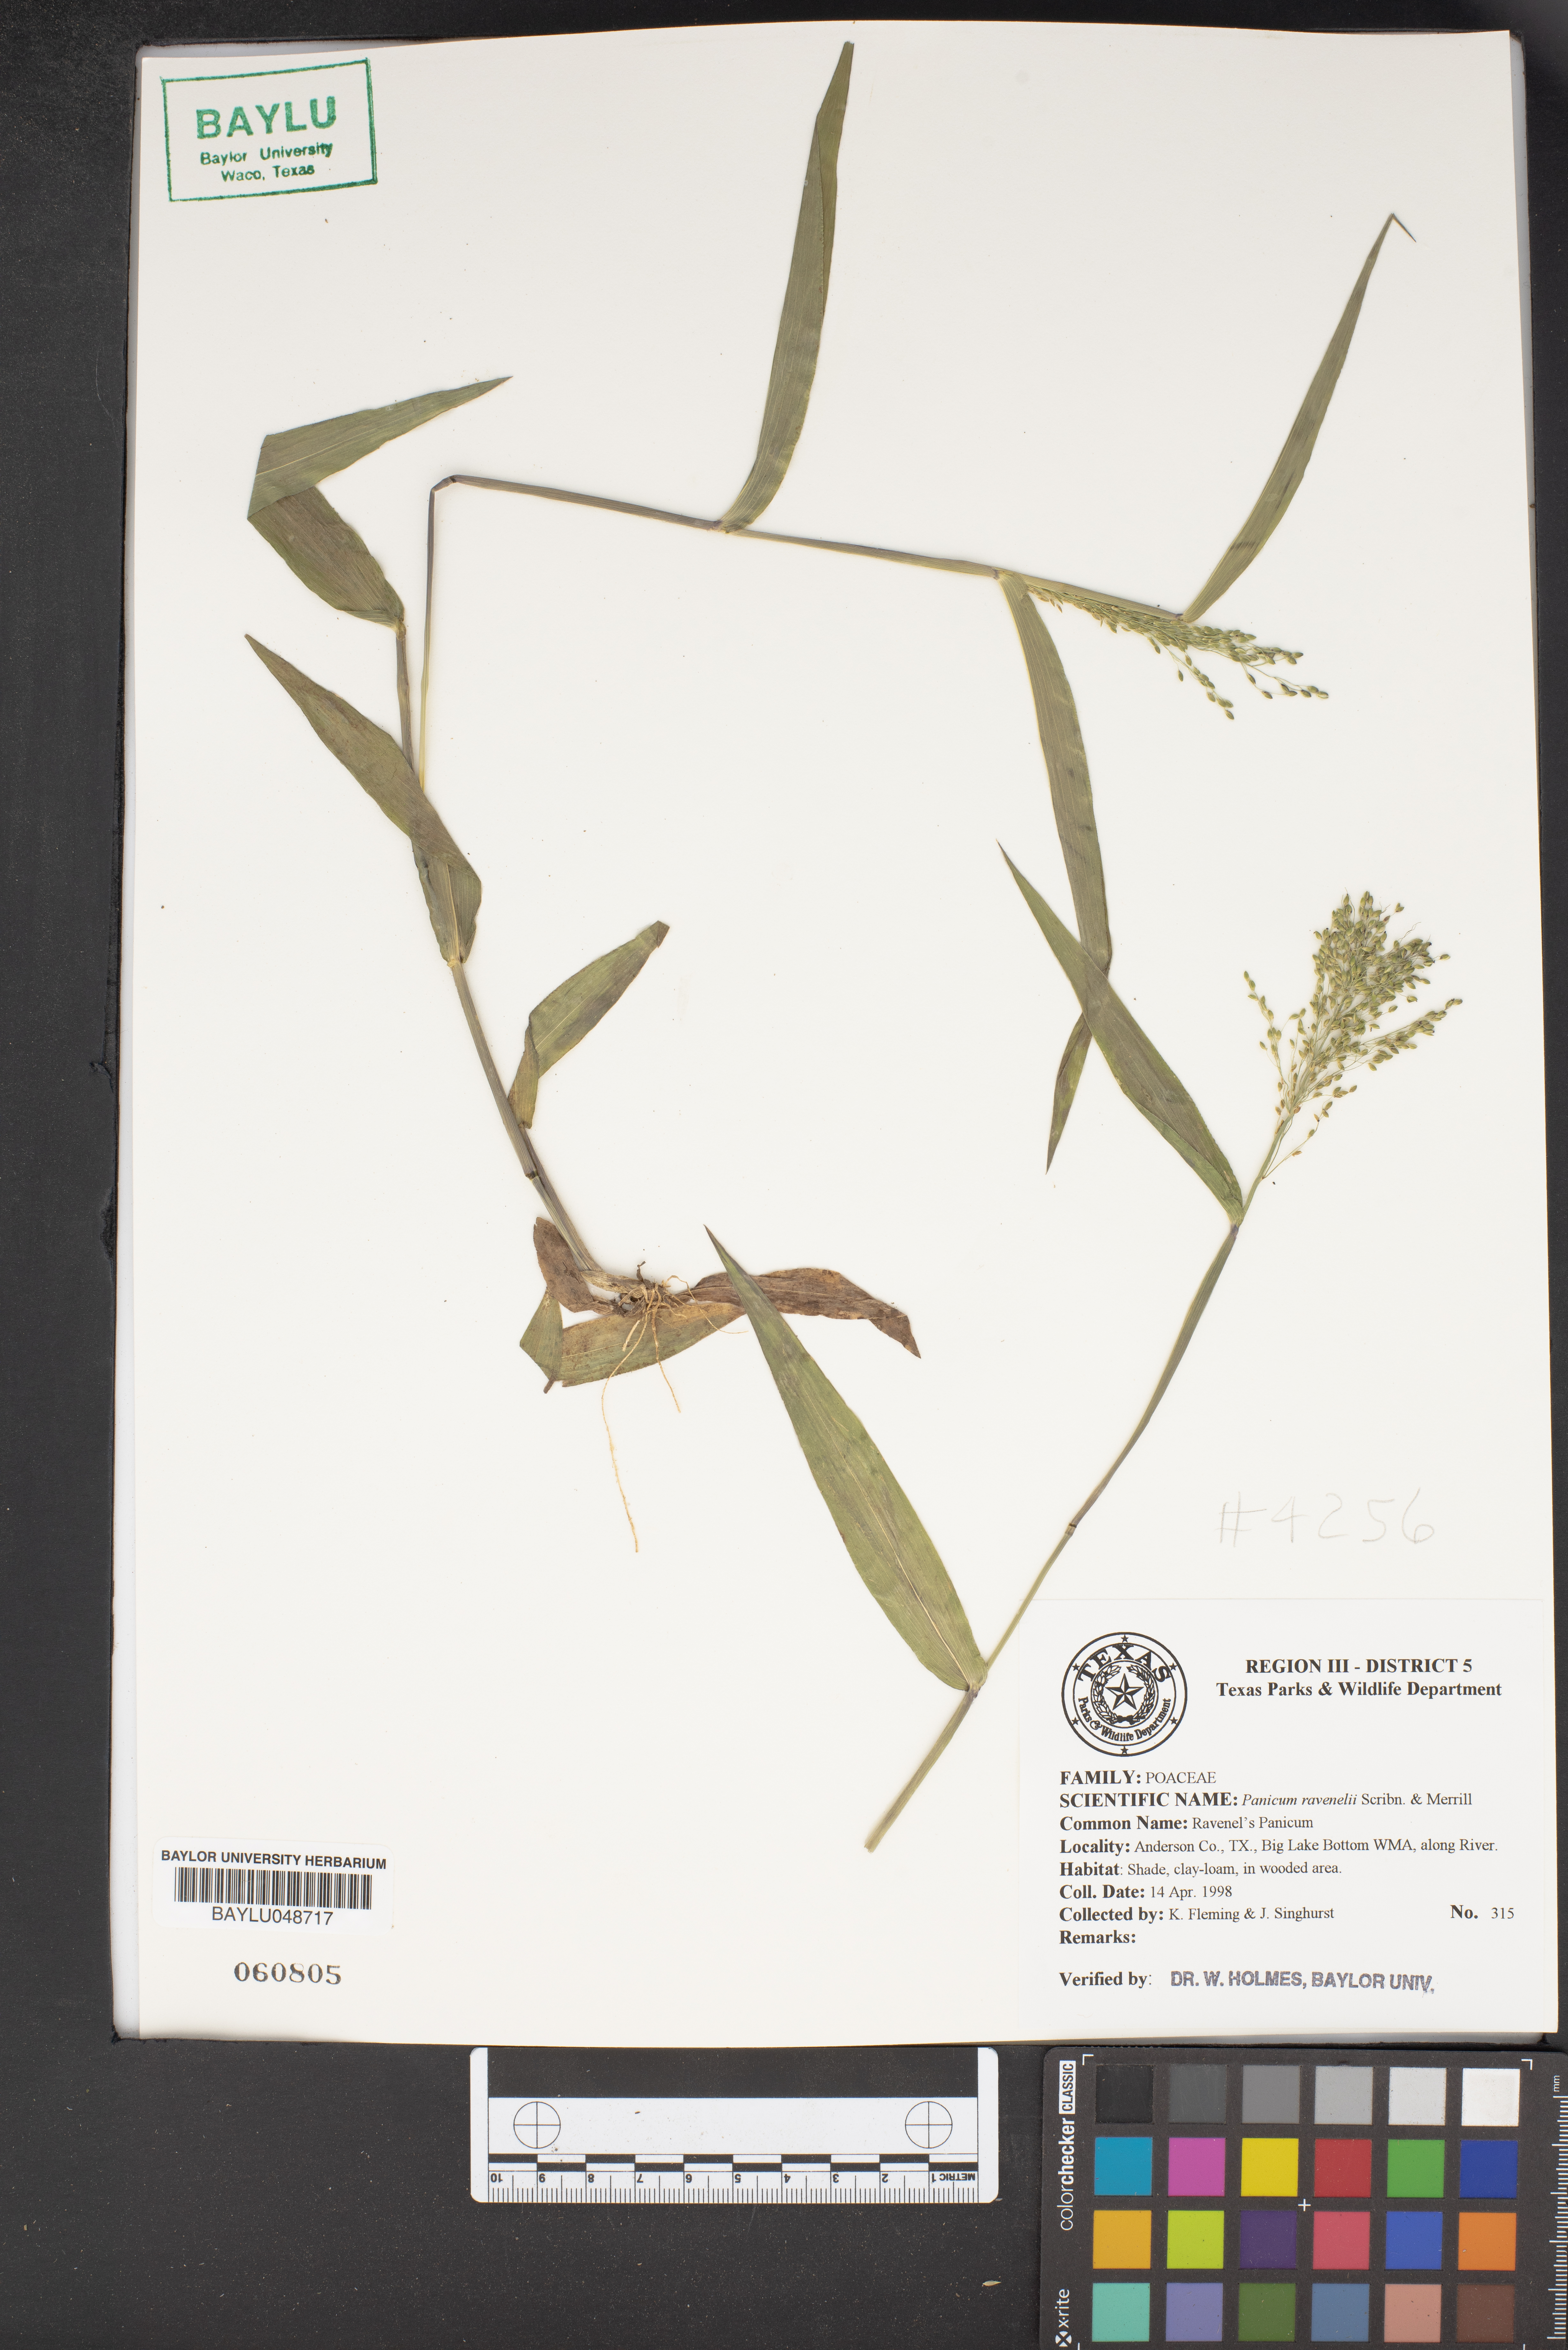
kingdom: Plantae
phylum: Tracheophyta
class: Liliopsida
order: Poales
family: Poaceae
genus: Dichanthelium
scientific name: Dichanthelium ravenelii
